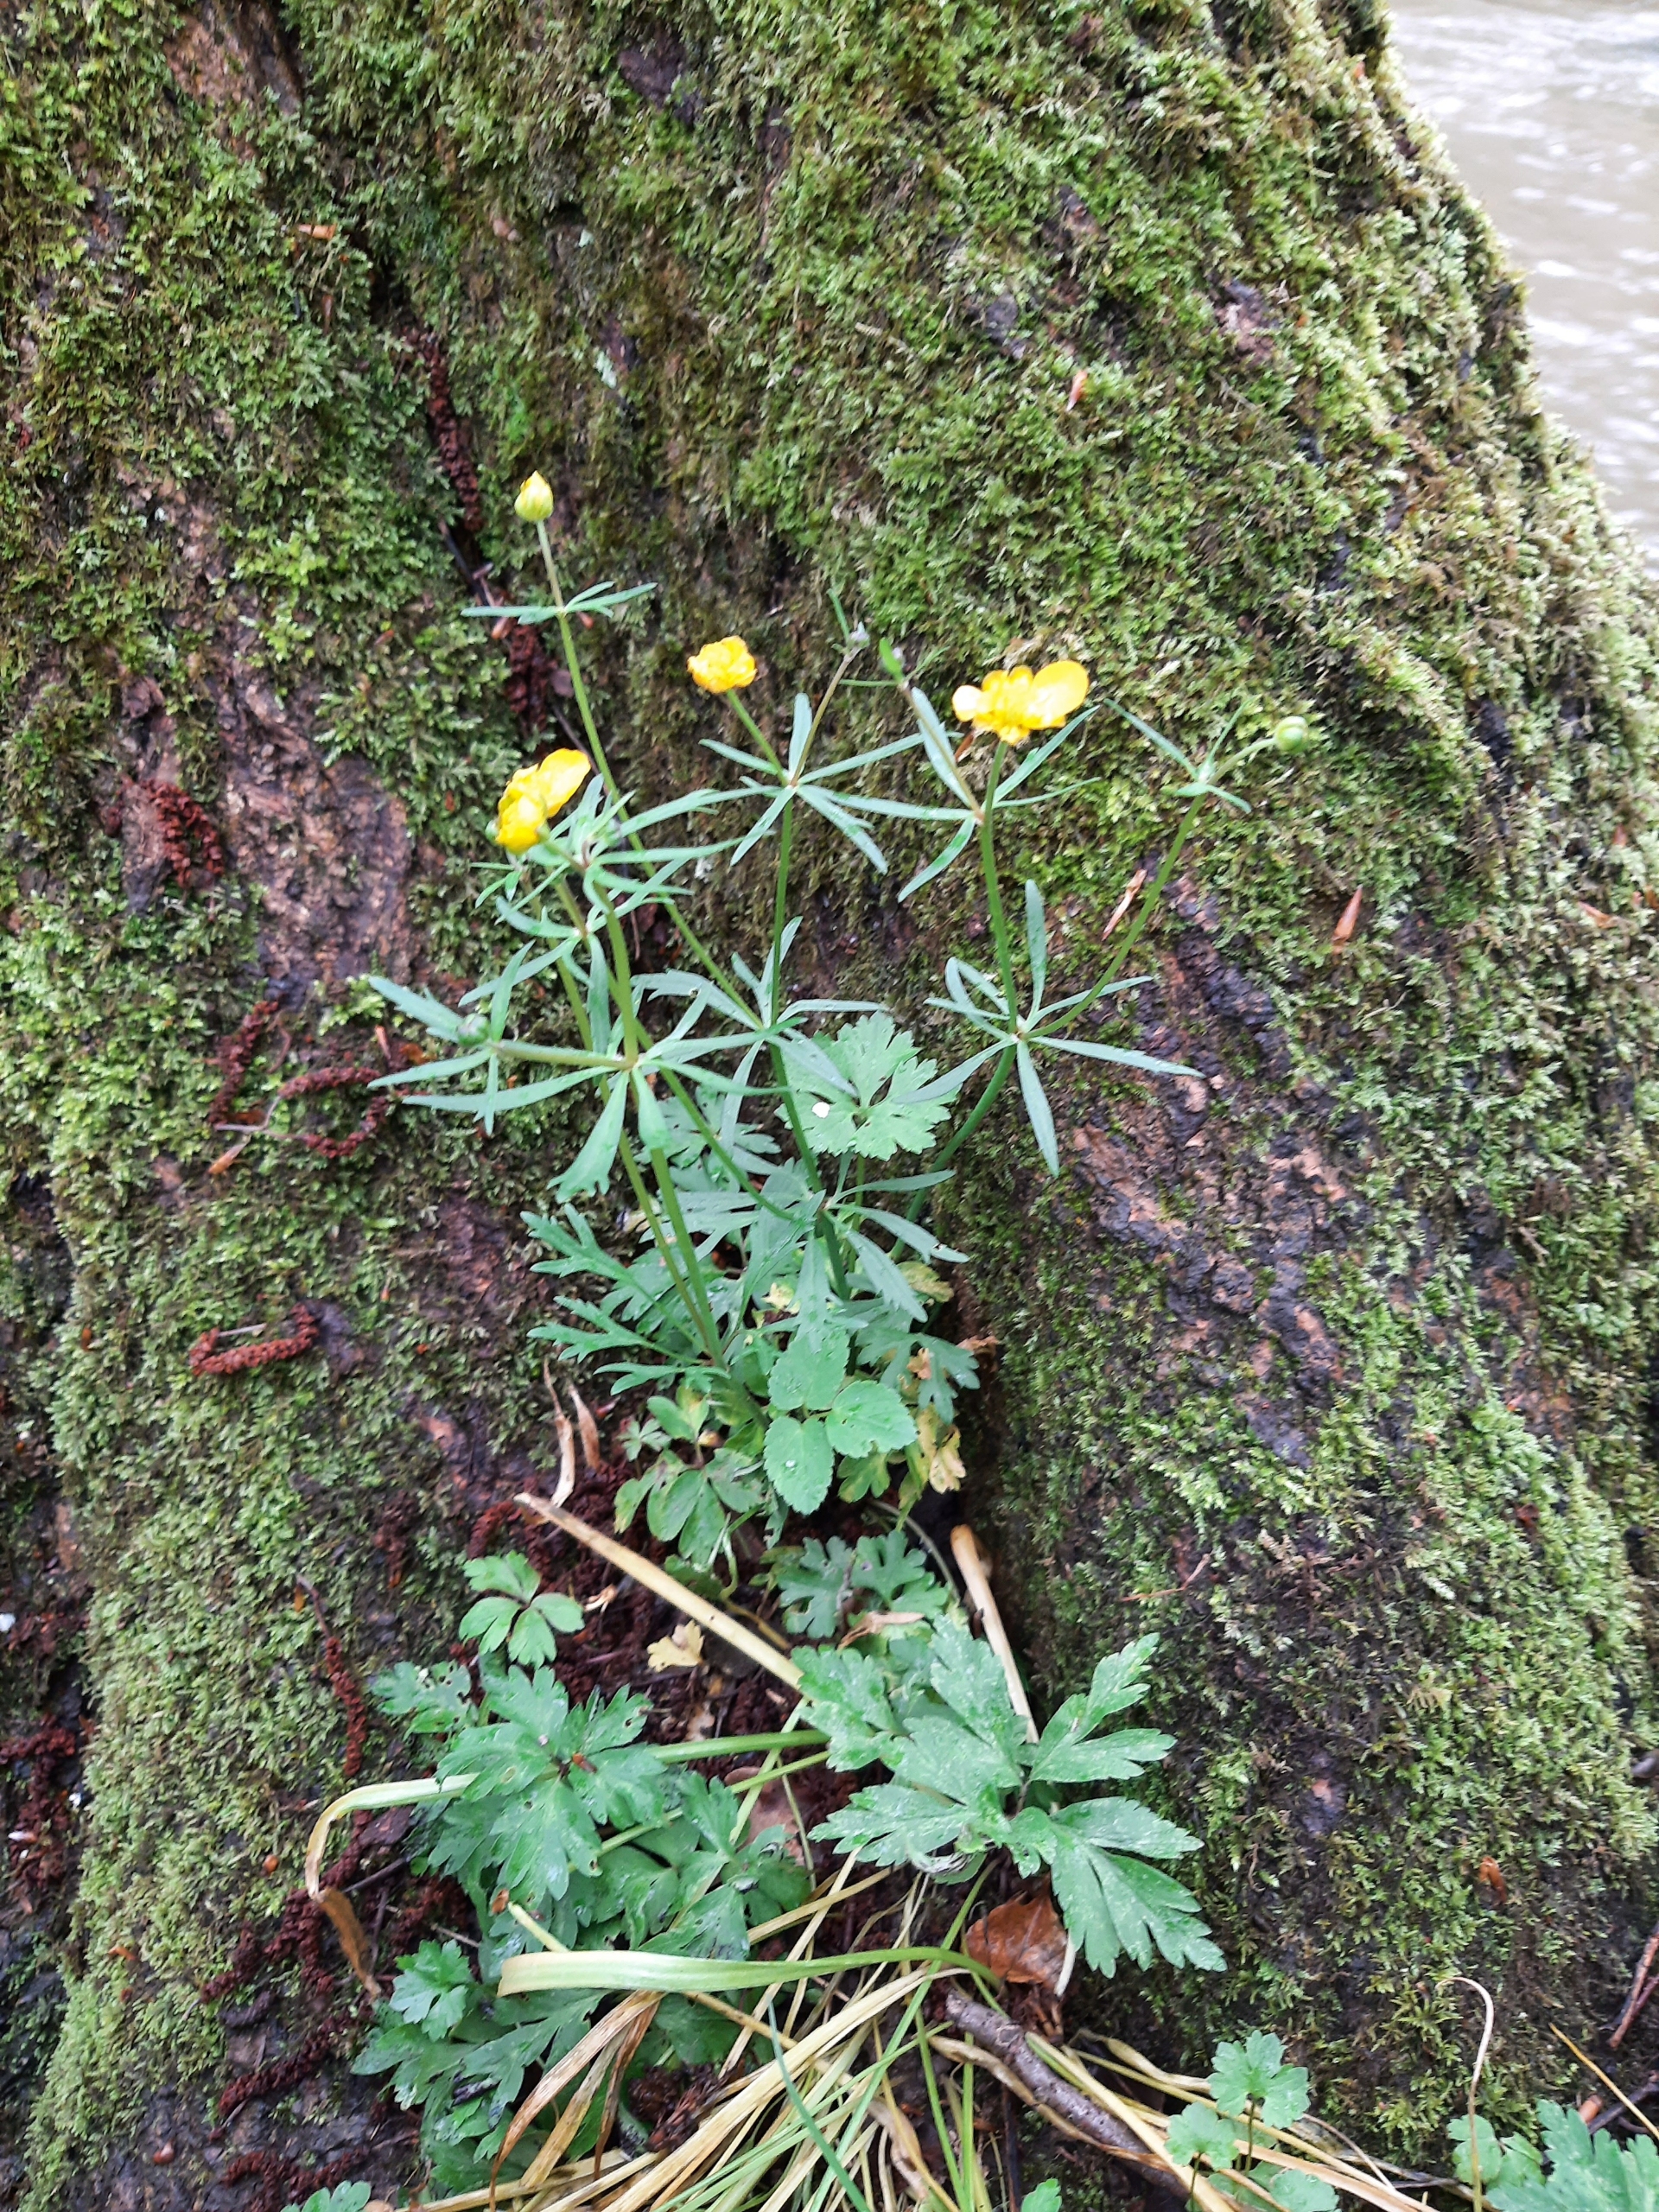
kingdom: Plantae
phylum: Tracheophyta
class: Magnoliopsida
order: Ranunculales
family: Ranunculaceae
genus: Ranunculus
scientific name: Ranunculus auricomus
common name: Nyrebladet ranunkel
